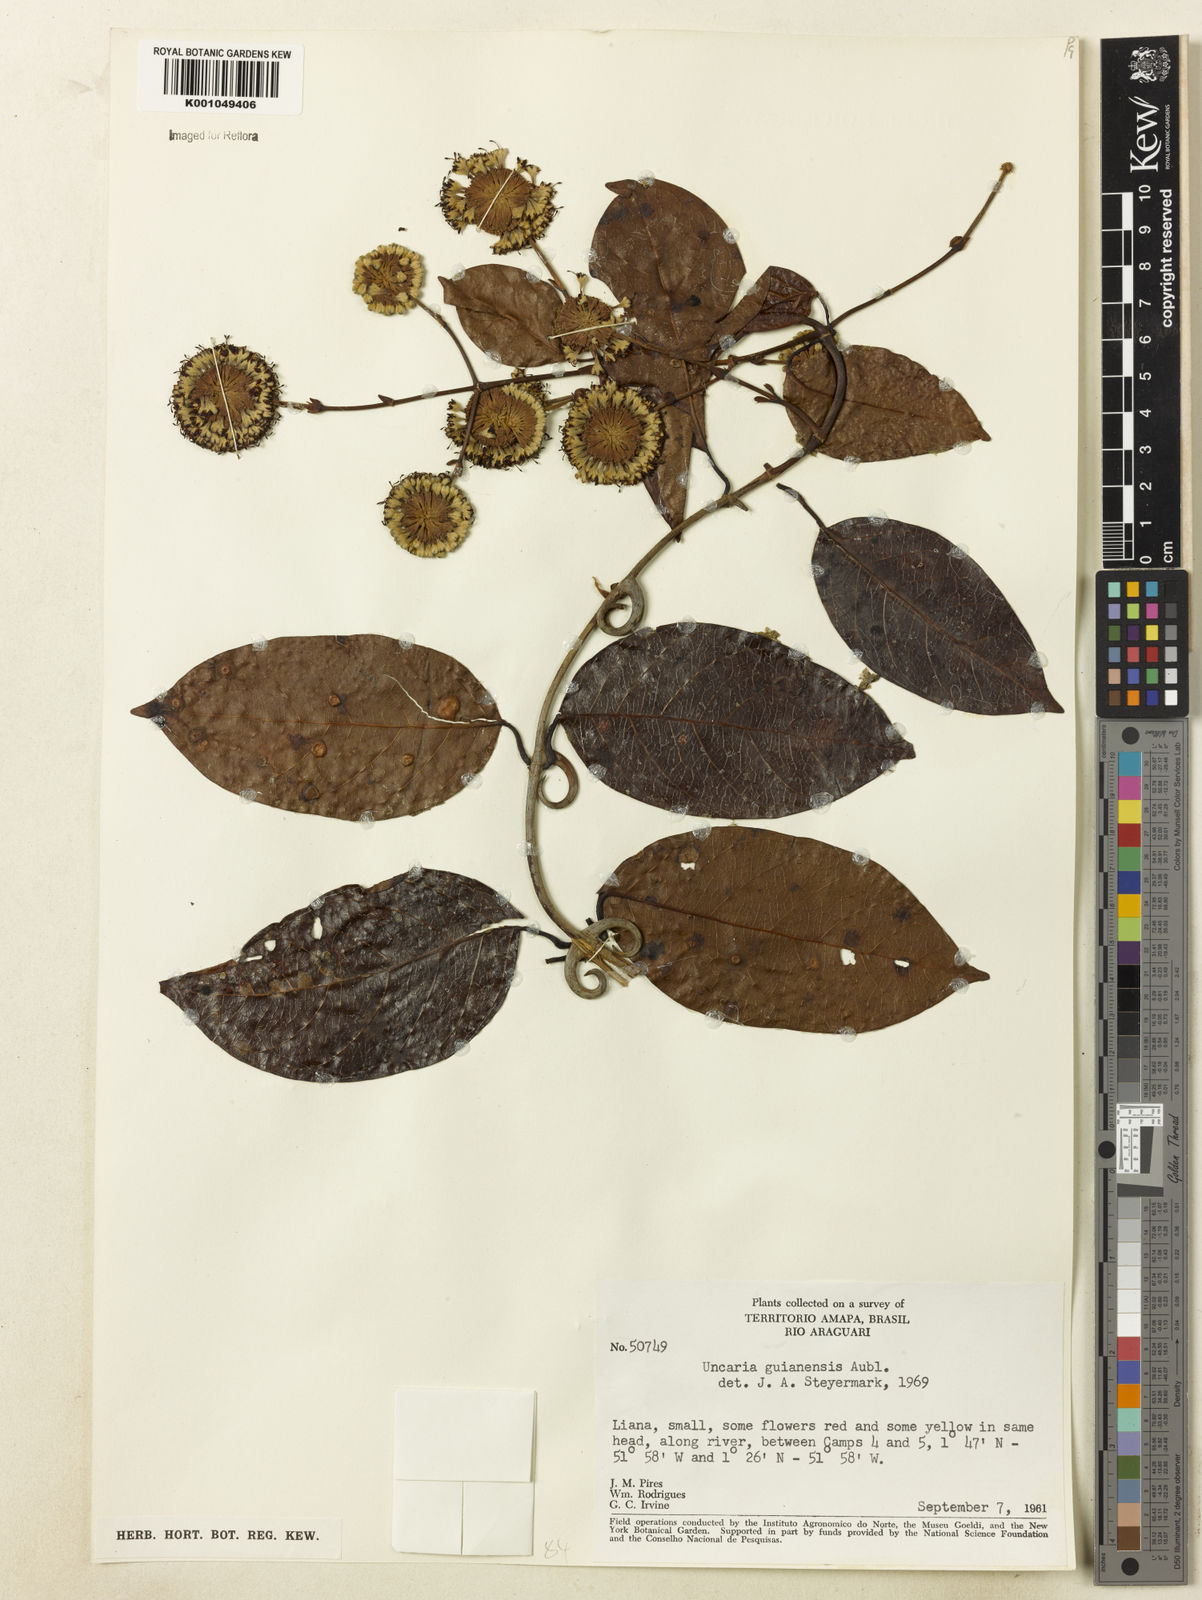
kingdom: Plantae
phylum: Tracheophyta
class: Magnoliopsida
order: Gentianales
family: Rubiaceae
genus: Uncaria
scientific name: Uncaria guianensis
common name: Cat's-claw
